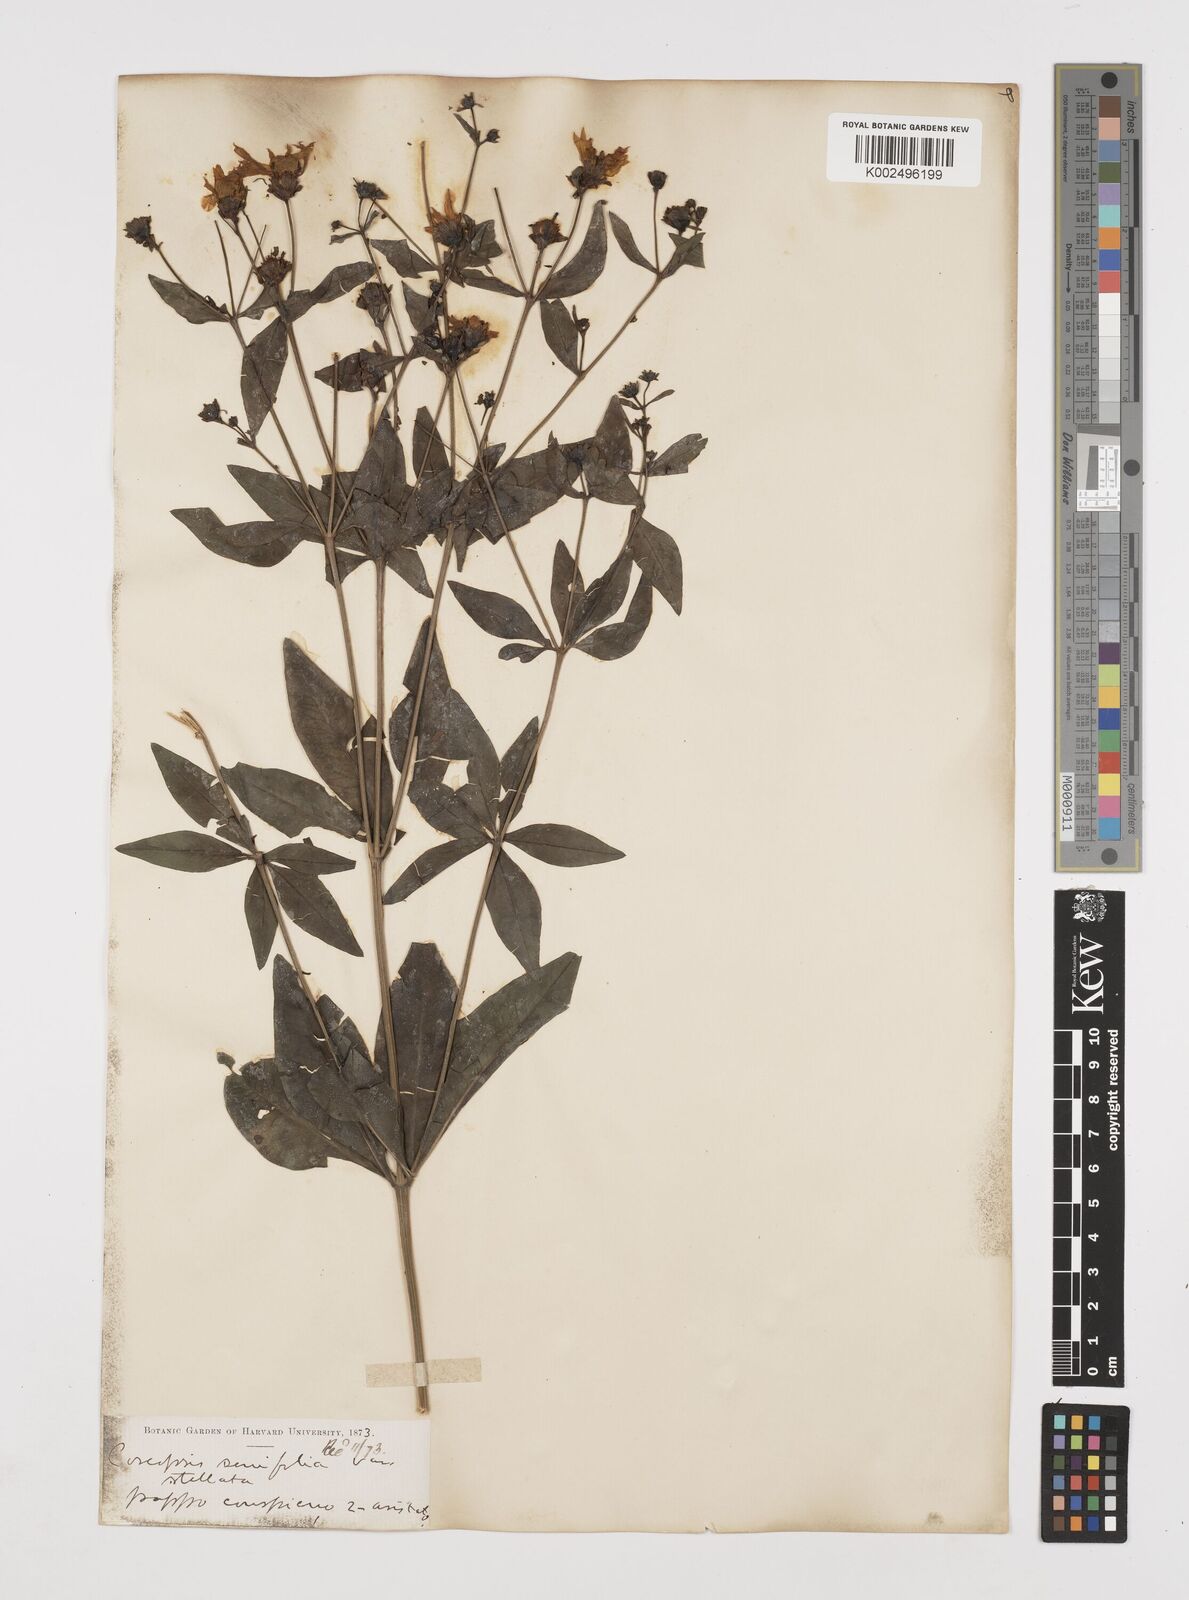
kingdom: Plantae
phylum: Tracheophyta
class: Magnoliopsida
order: Asterales
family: Asteraceae
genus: Coreopsis
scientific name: Coreopsis major
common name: Forest tickseed
